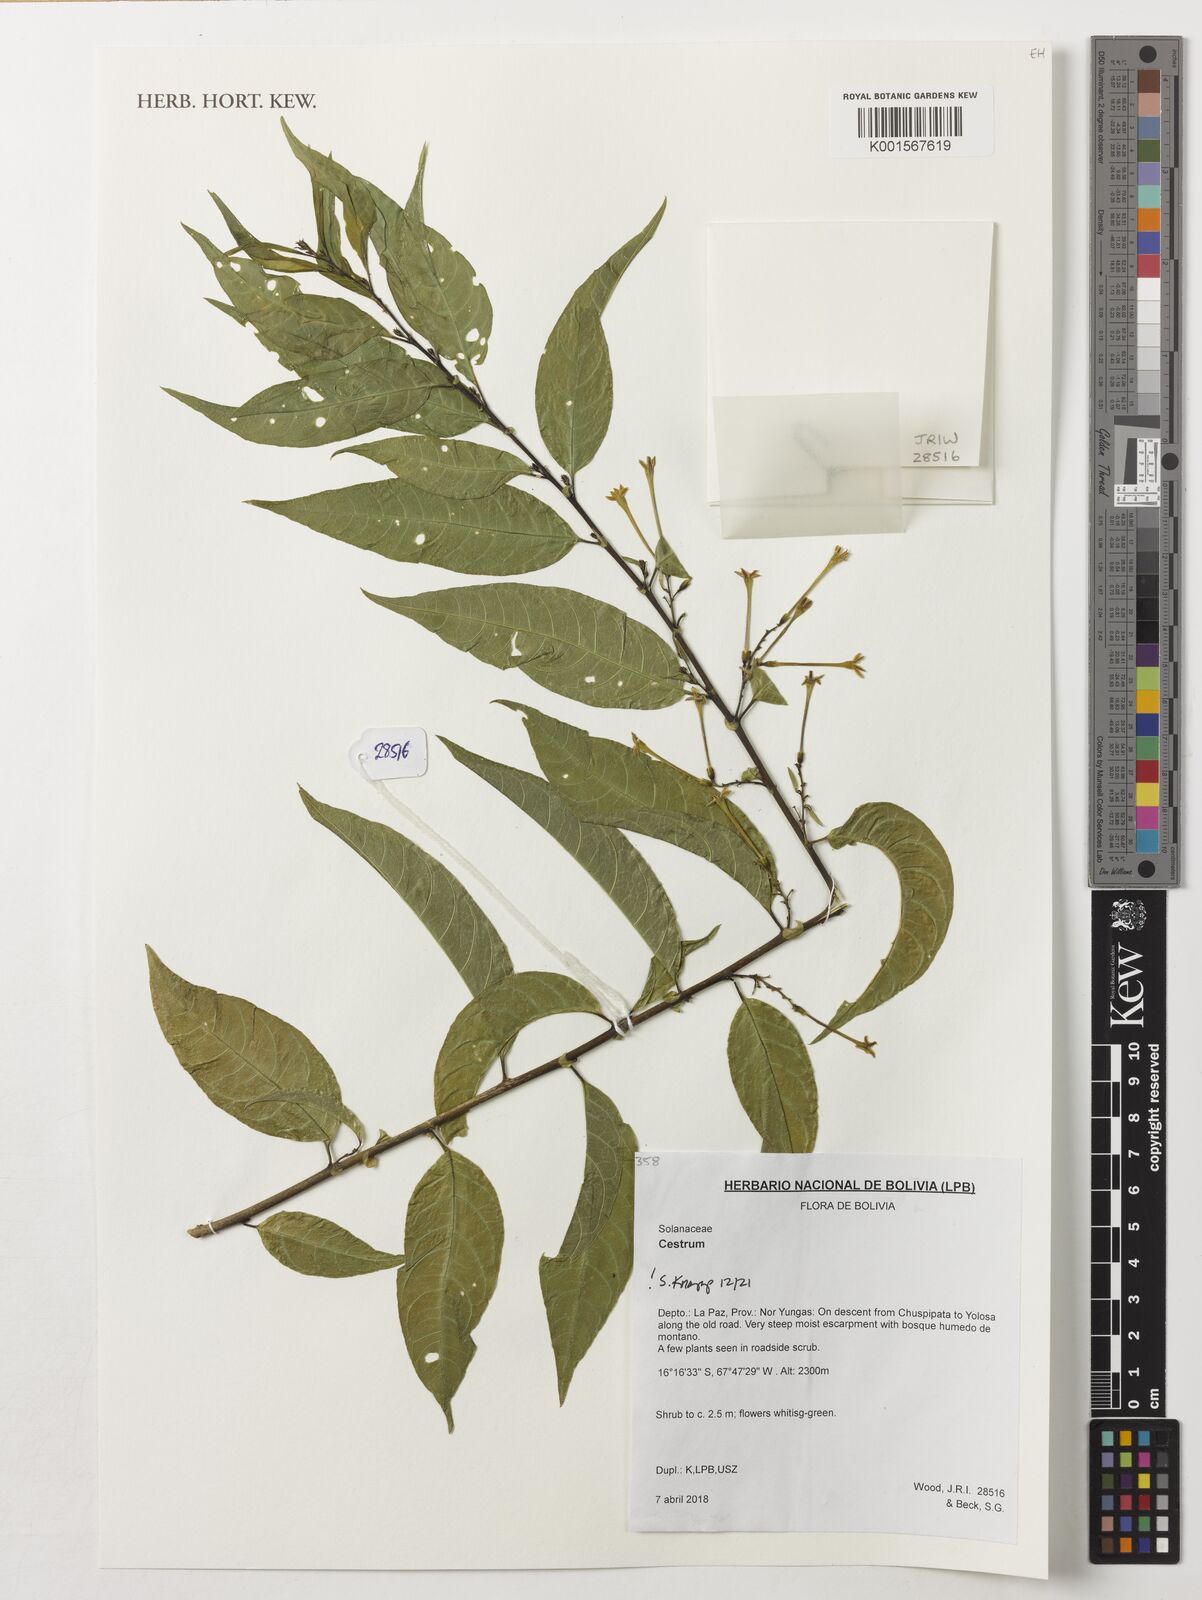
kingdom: Plantae
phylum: Tracheophyta
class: Magnoliopsida
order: Solanales
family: Solanaceae
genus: Cestrum
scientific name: Cestrum
